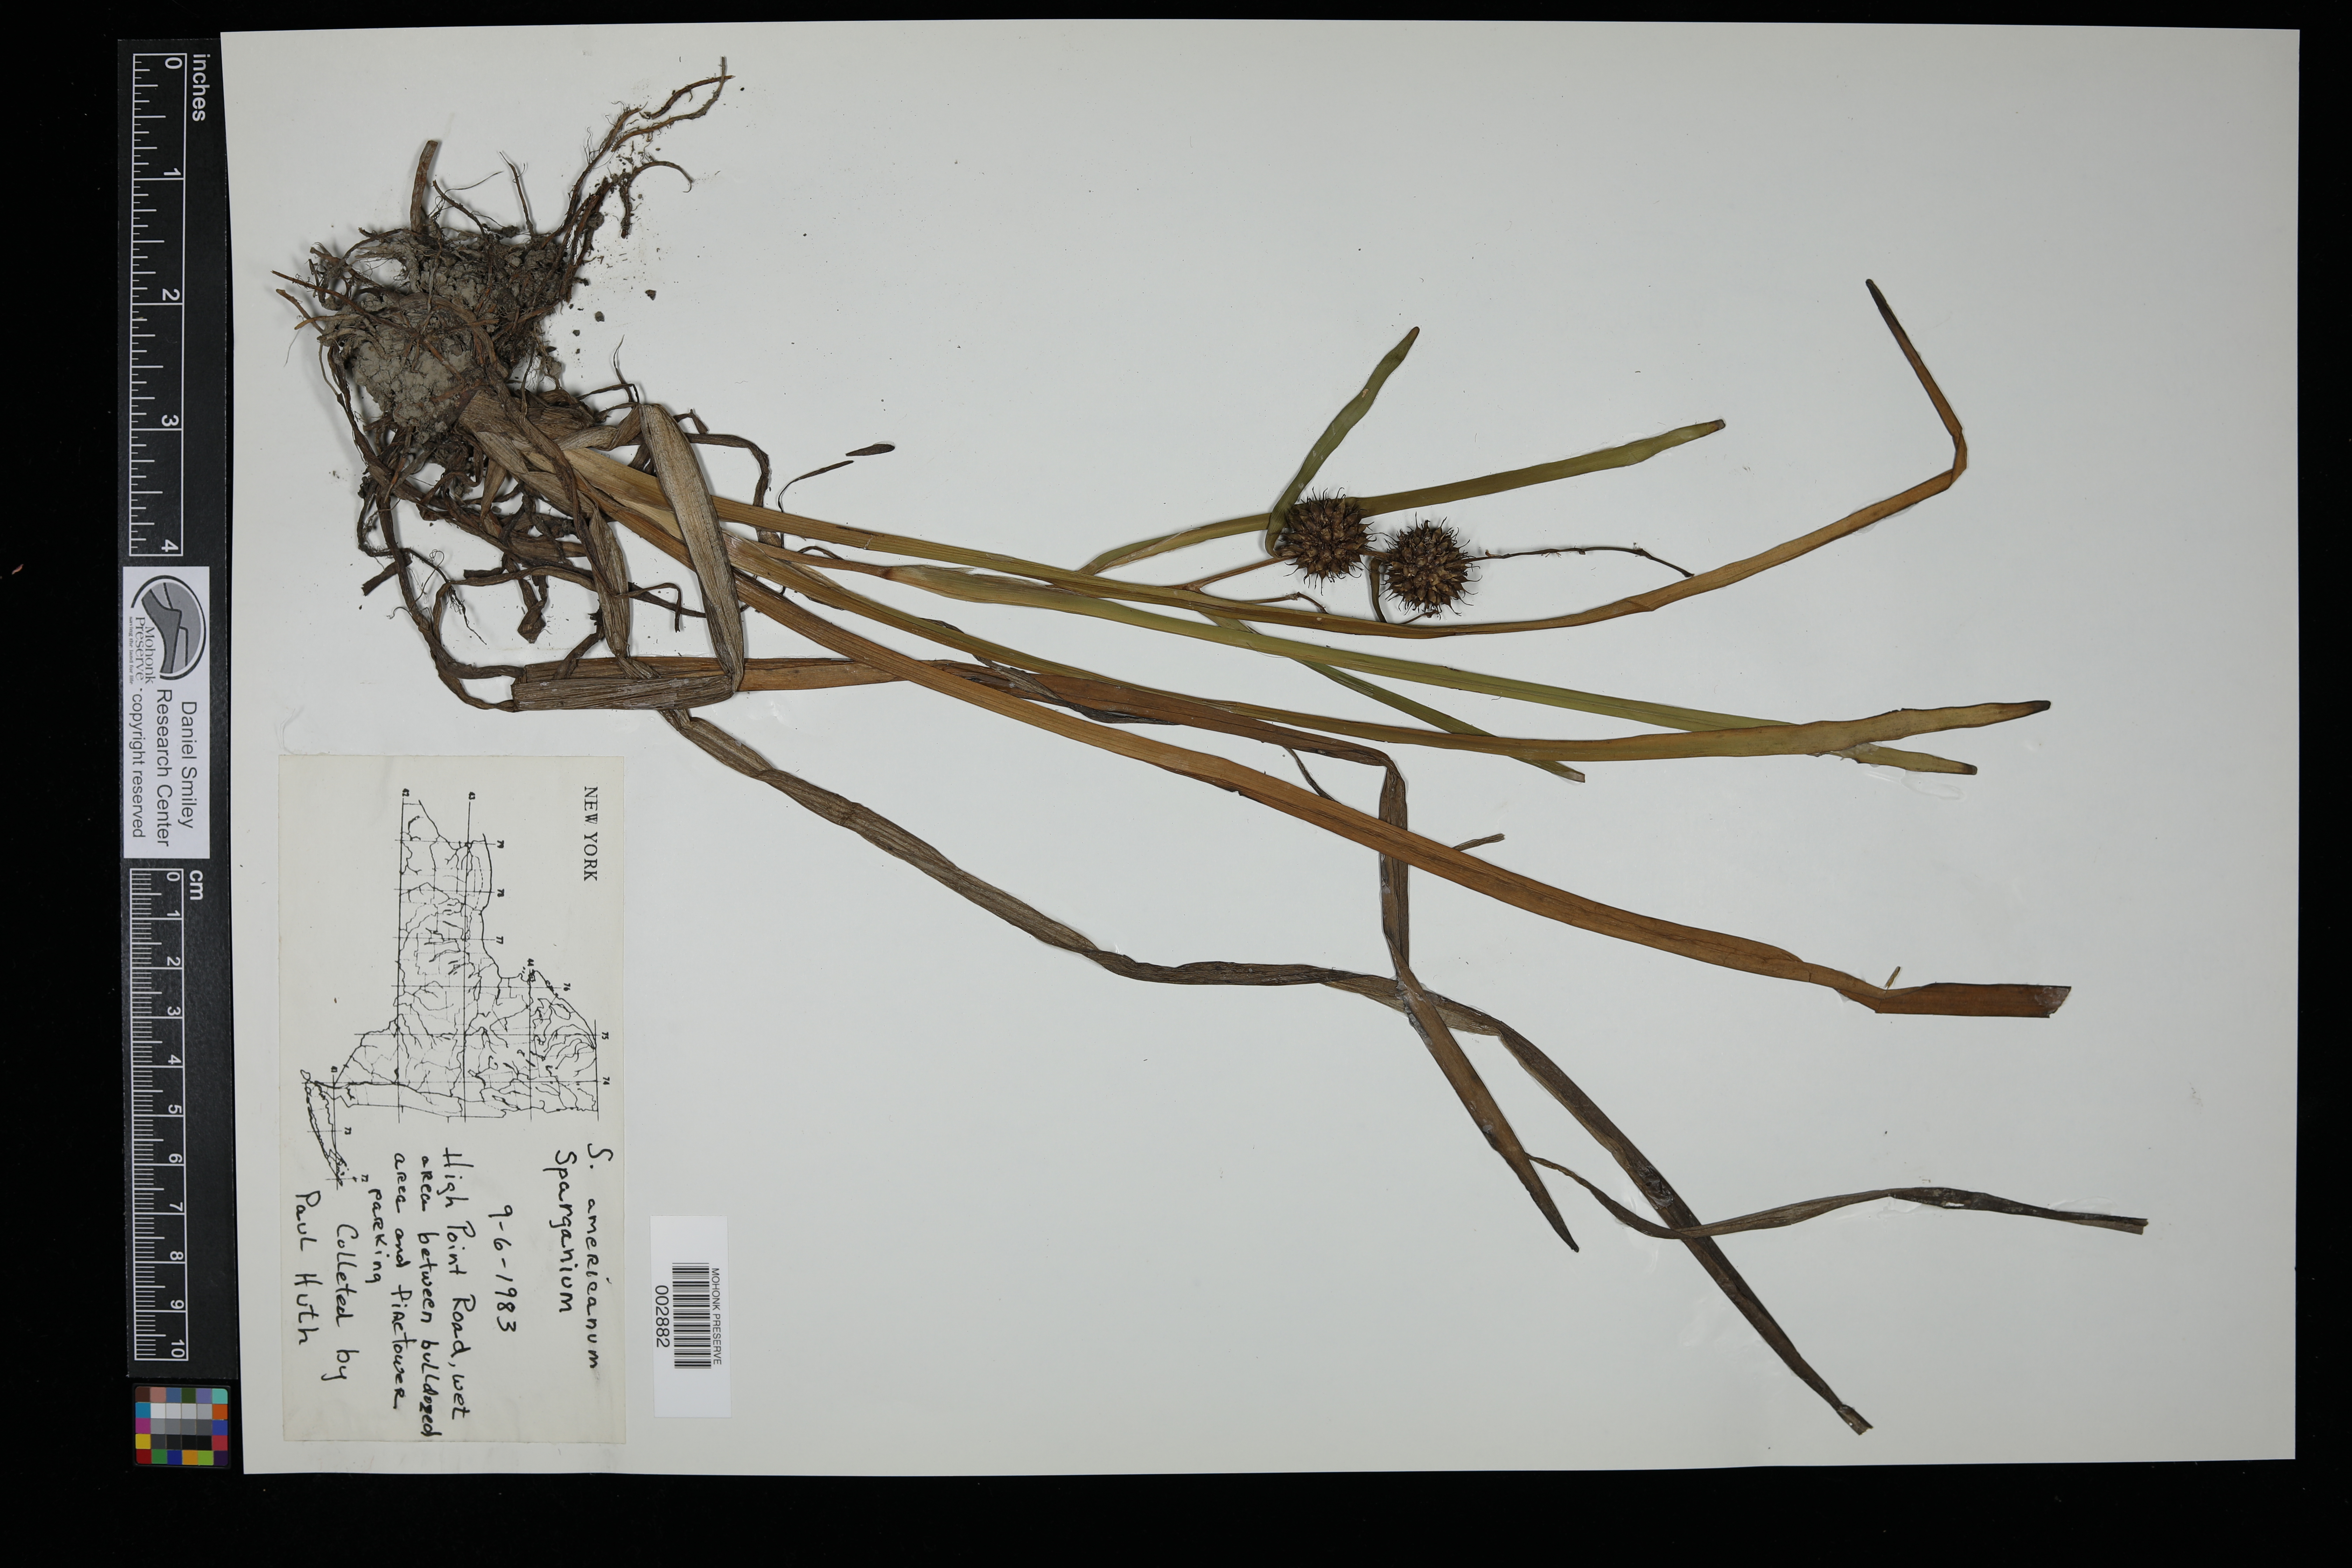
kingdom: Plantae
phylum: Tracheophyta
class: Liliopsida
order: Poales
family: Typhaceae
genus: Sparganium
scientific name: Sparganium americanum
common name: American burreed
